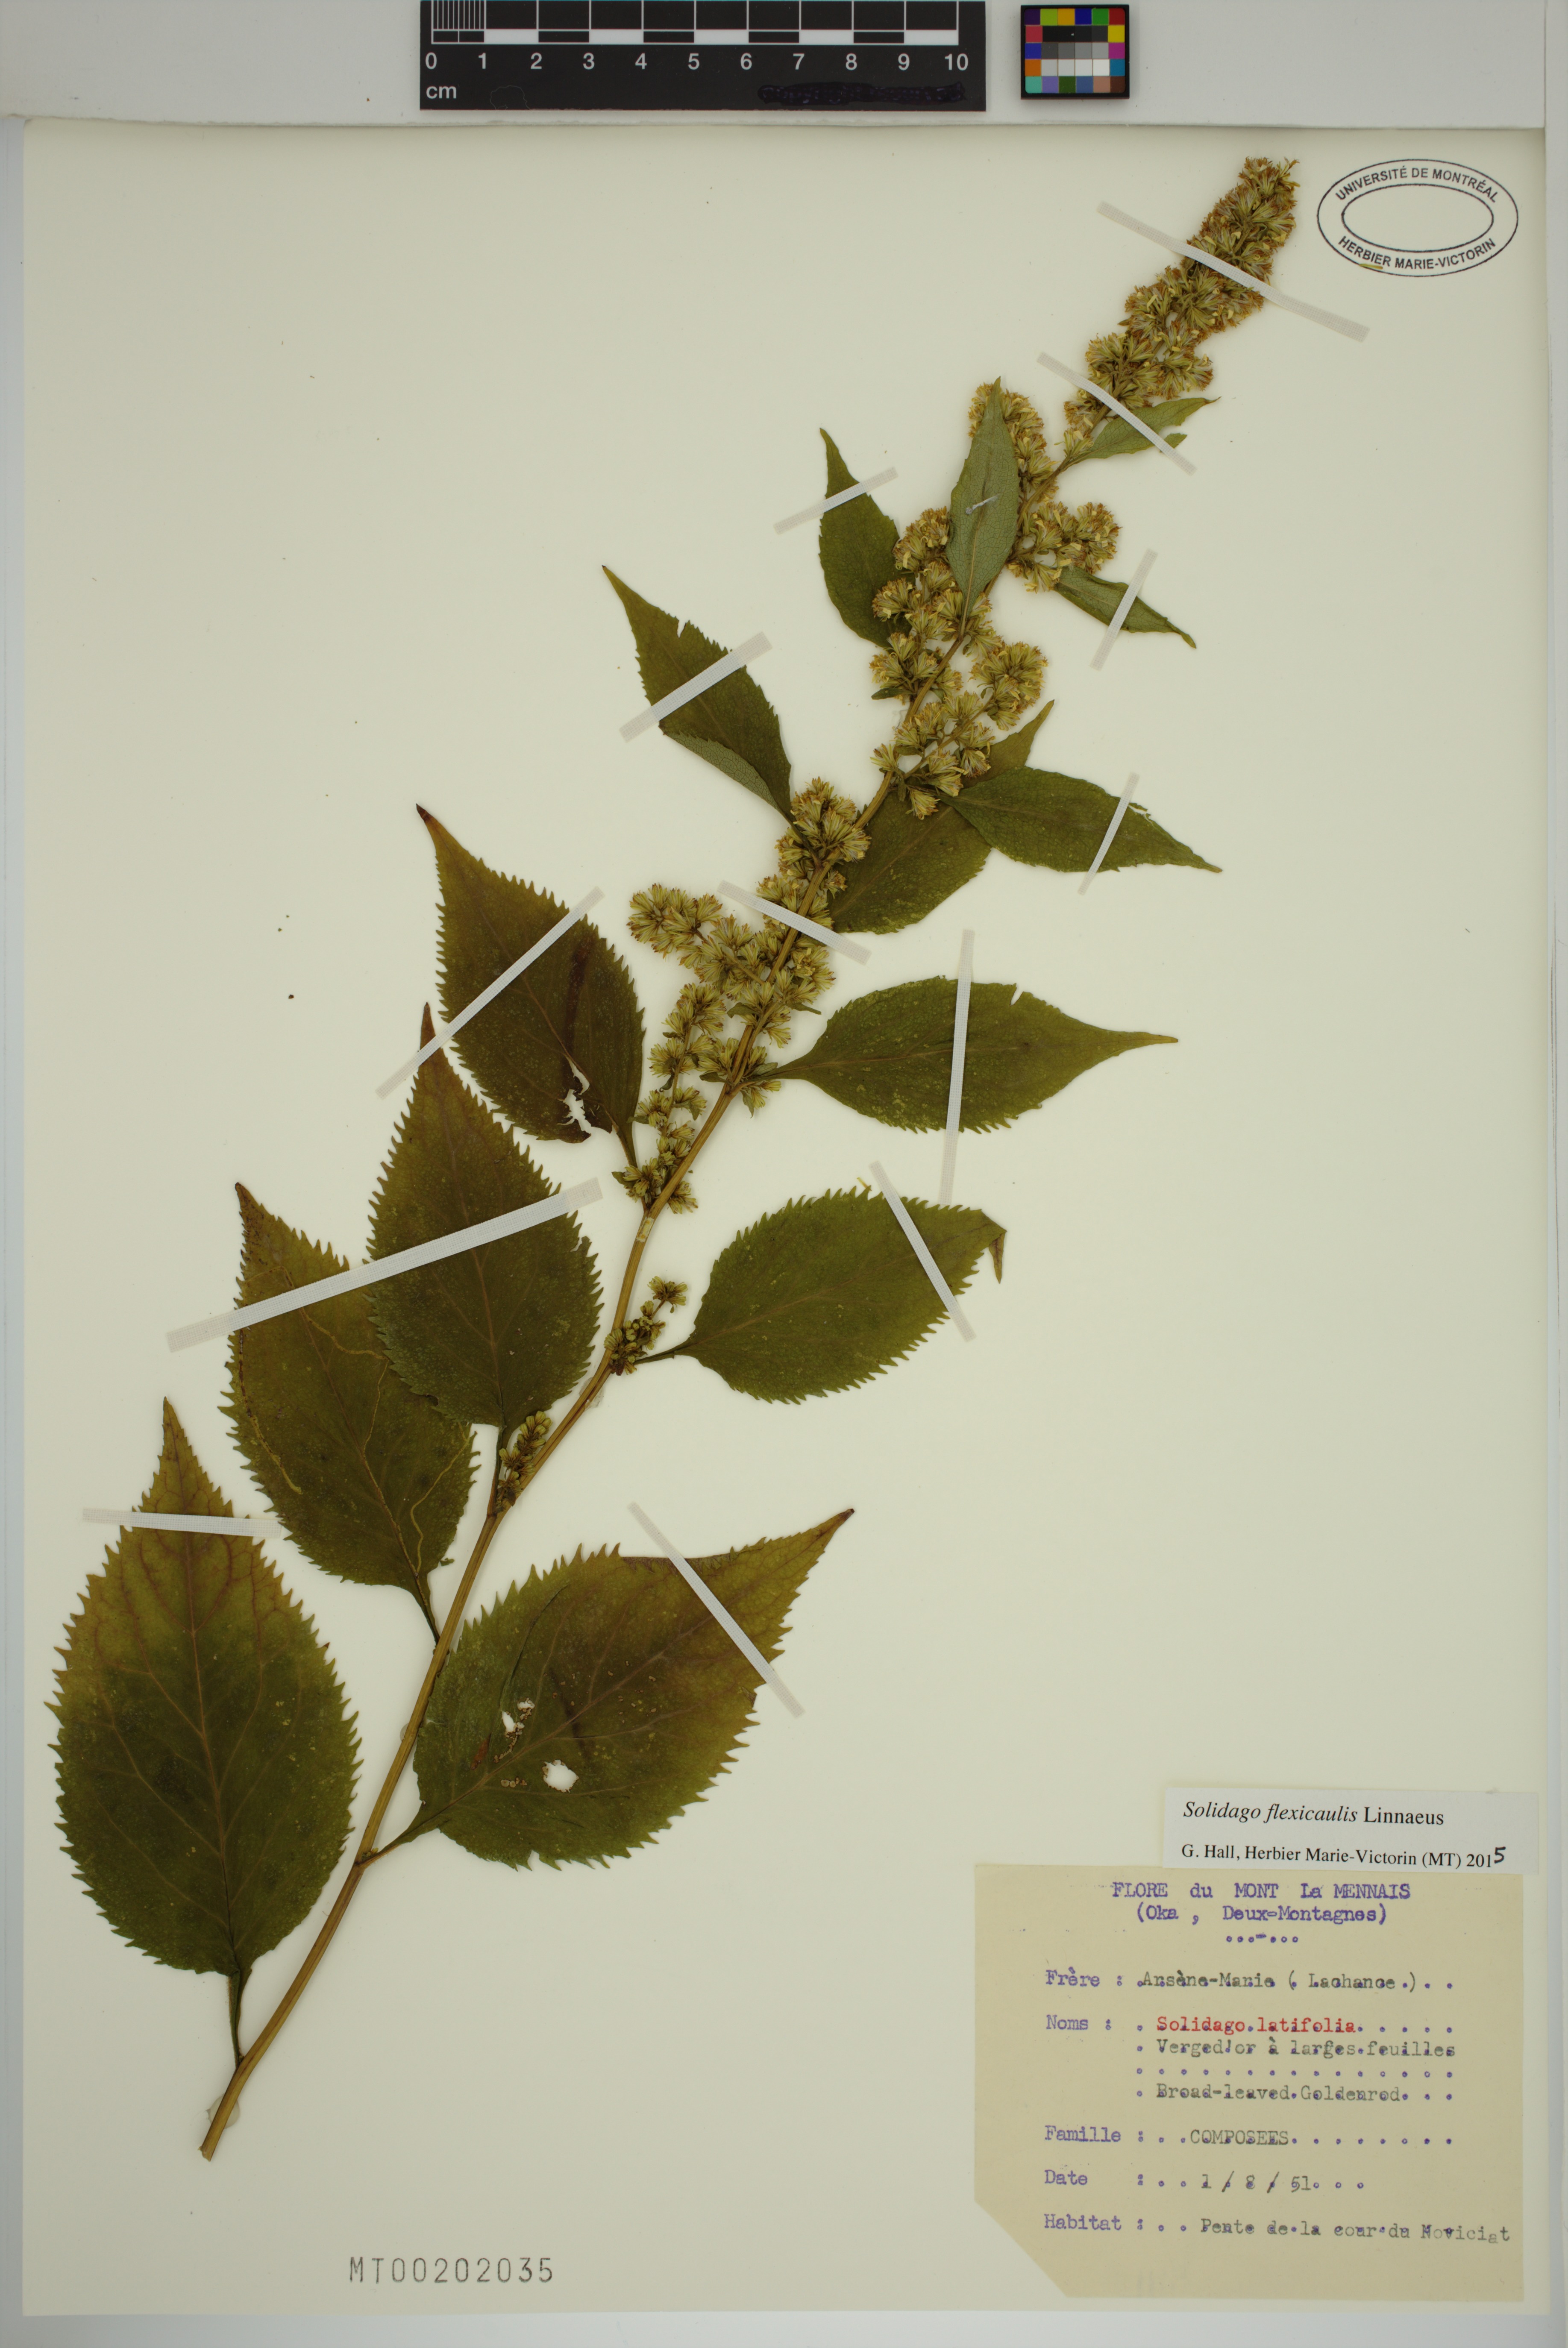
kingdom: Plantae
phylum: Tracheophyta
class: Magnoliopsida
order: Asterales
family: Asteraceae
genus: Solidago
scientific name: Solidago flexicaulis
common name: Zig-zag goldenrod
